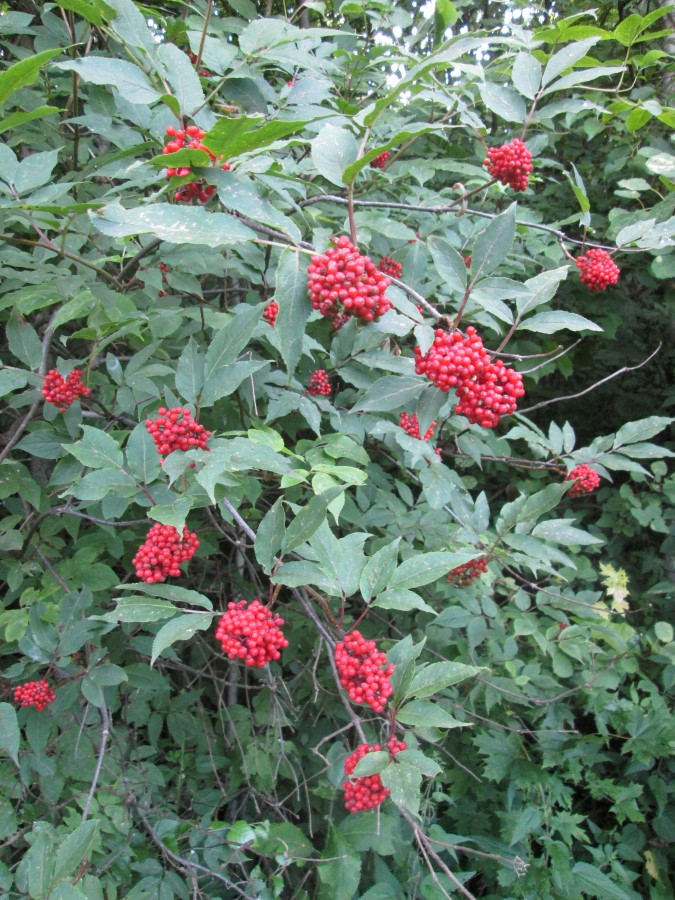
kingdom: Plantae
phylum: Tracheophyta
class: Magnoliopsida
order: Dipsacales
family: Viburnaceae
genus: Sambucus
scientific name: Sambucus racemosa
